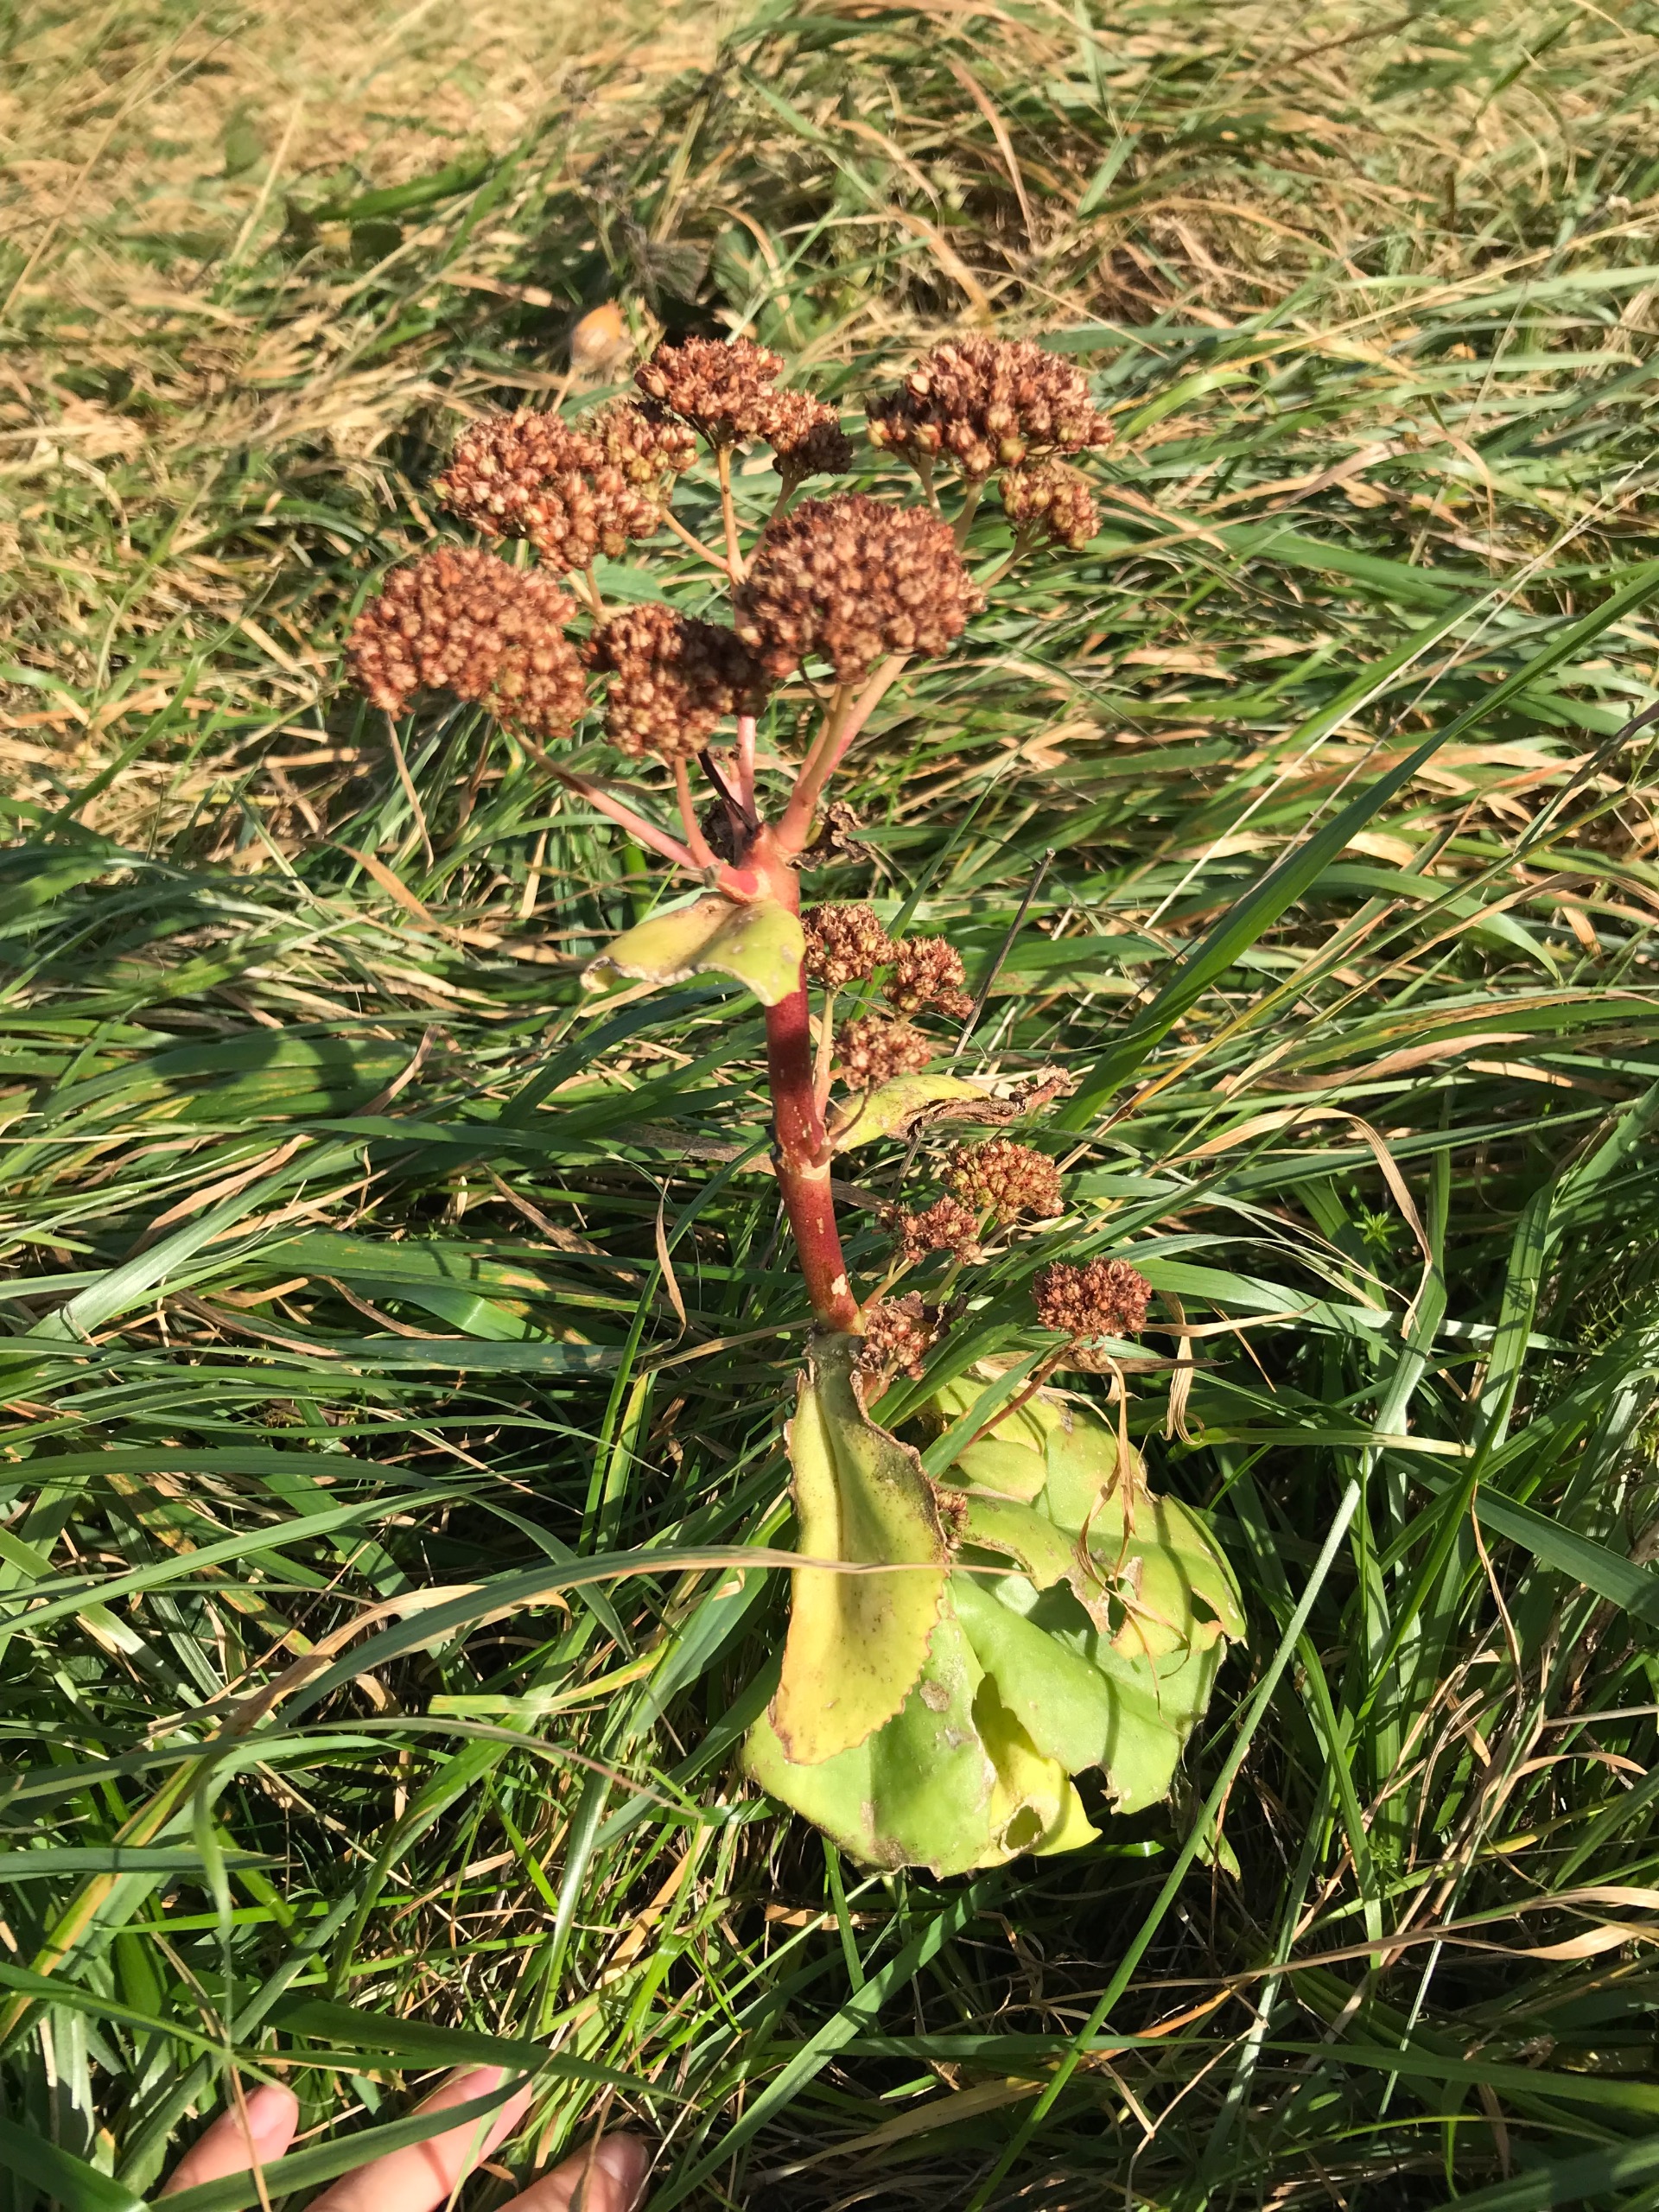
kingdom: Plantae
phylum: Tracheophyta
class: Magnoliopsida
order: Saxifragales
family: Crassulaceae
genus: Hylotelephium
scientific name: Hylotelephium telephium
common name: Sankthansurt
